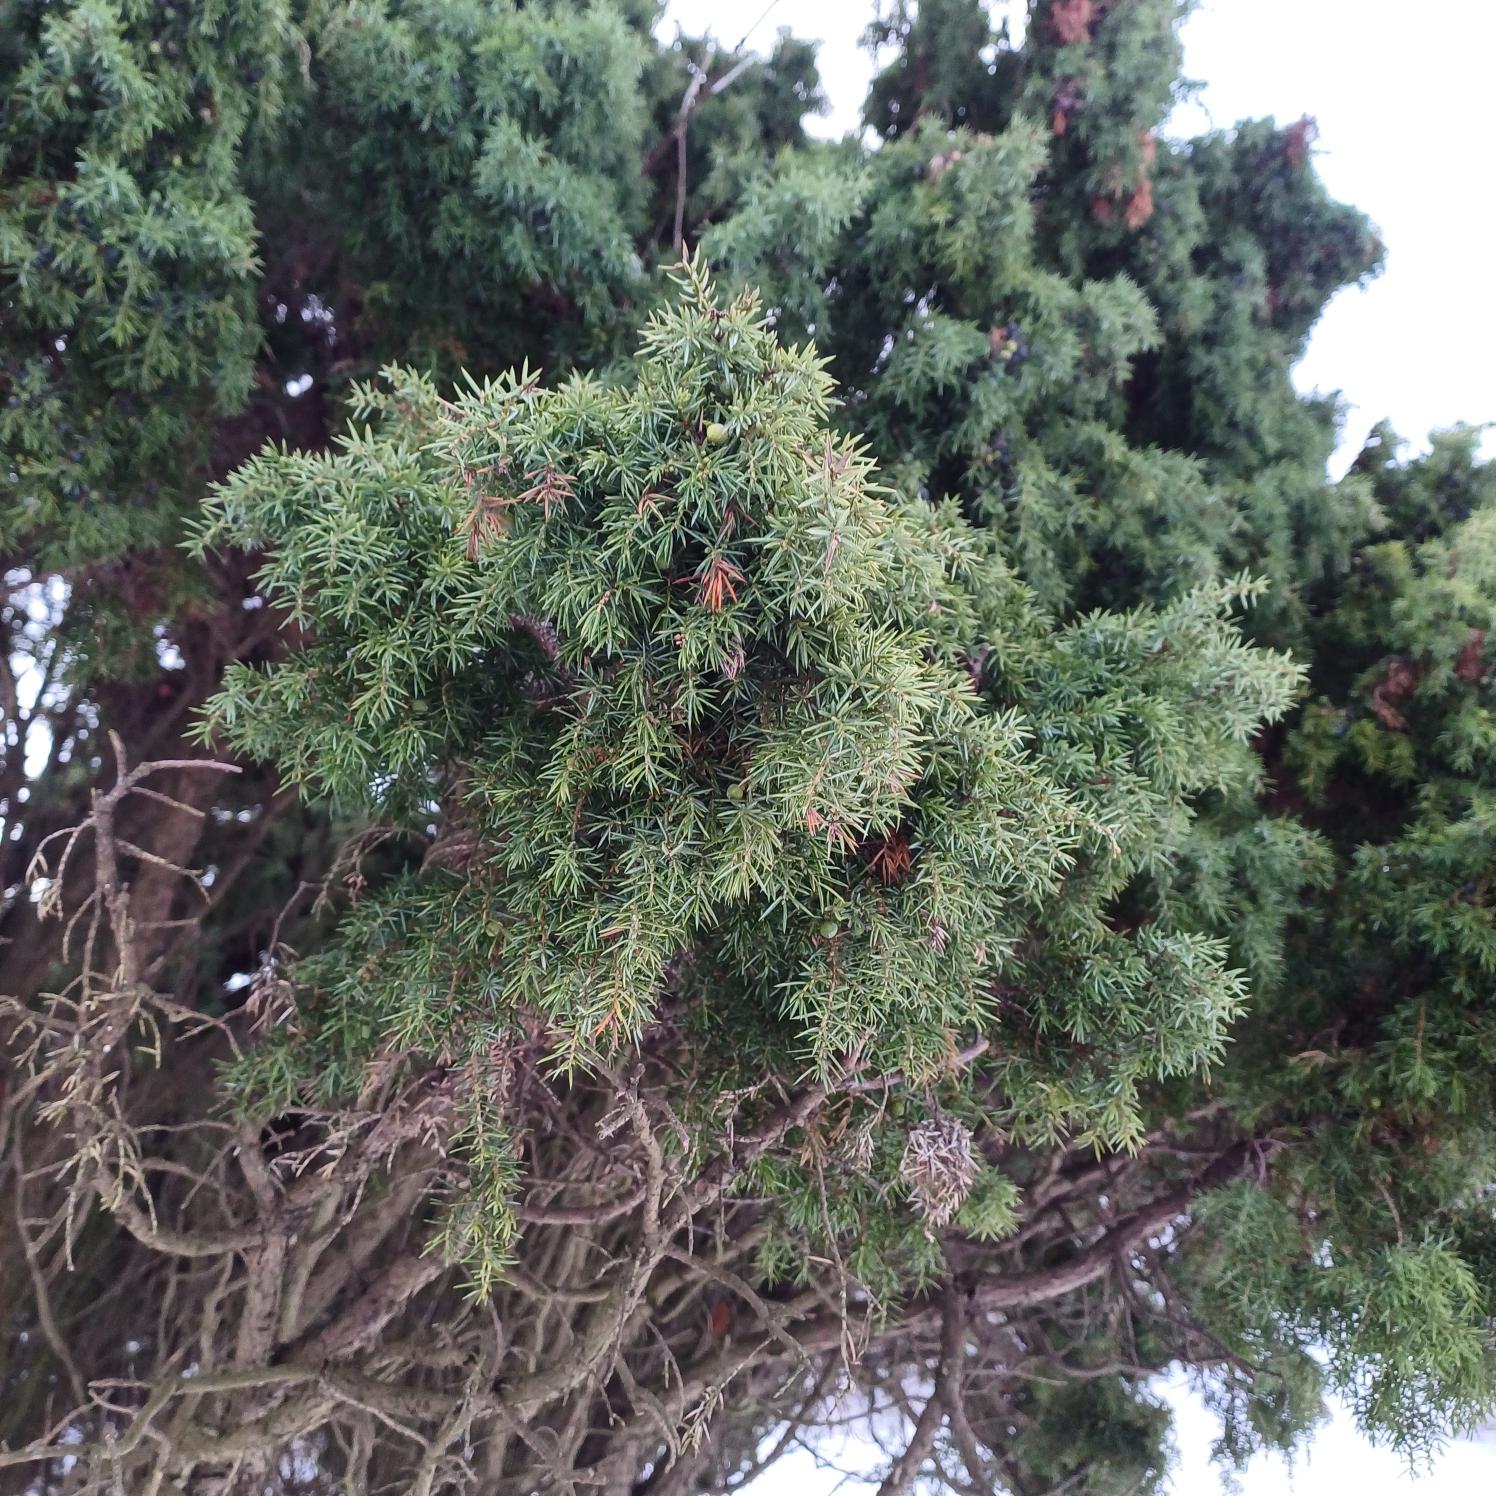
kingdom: Plantae
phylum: Tracheophyta
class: Pinopsida
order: Pinales
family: Cupressaceae
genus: Juniperus
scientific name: Juniperus communis
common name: Almindelig ene
